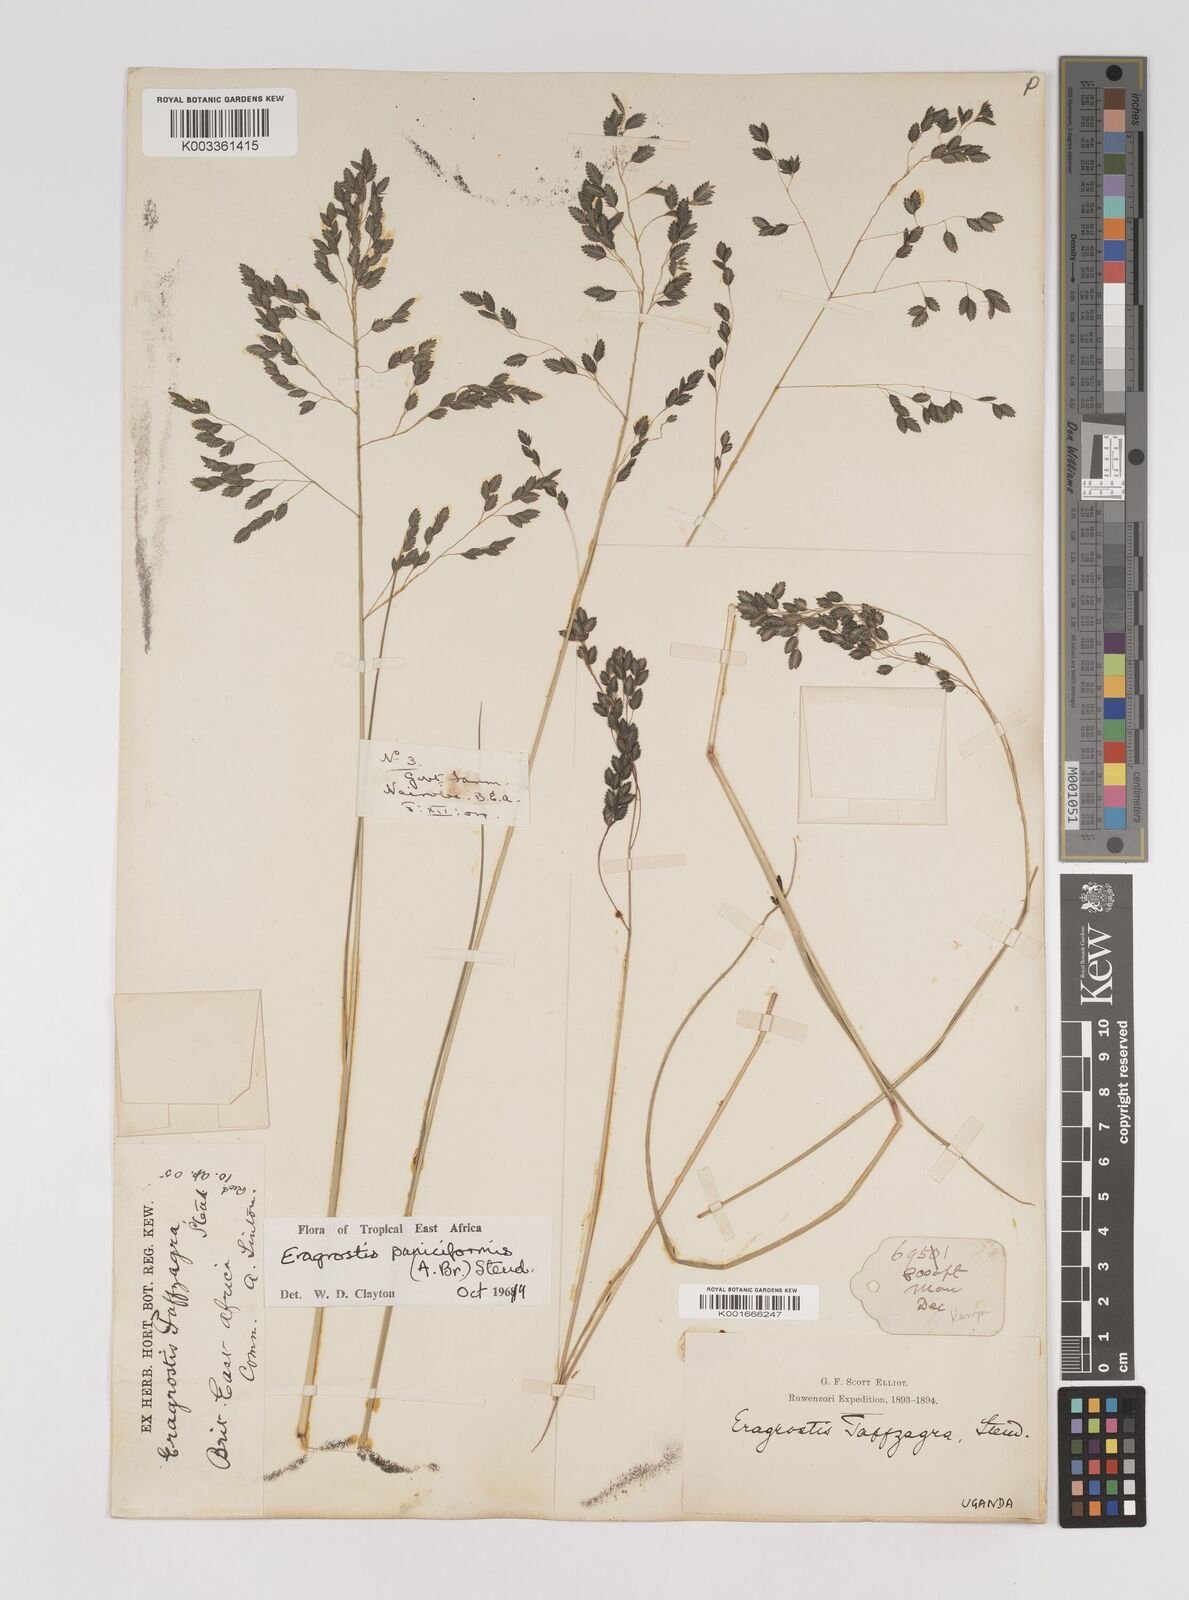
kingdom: Plantae
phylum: Tracheophyta
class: Liliopsida
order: Poales
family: Poaceae
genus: Eragrostis
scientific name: Eragrostis paniciformis
